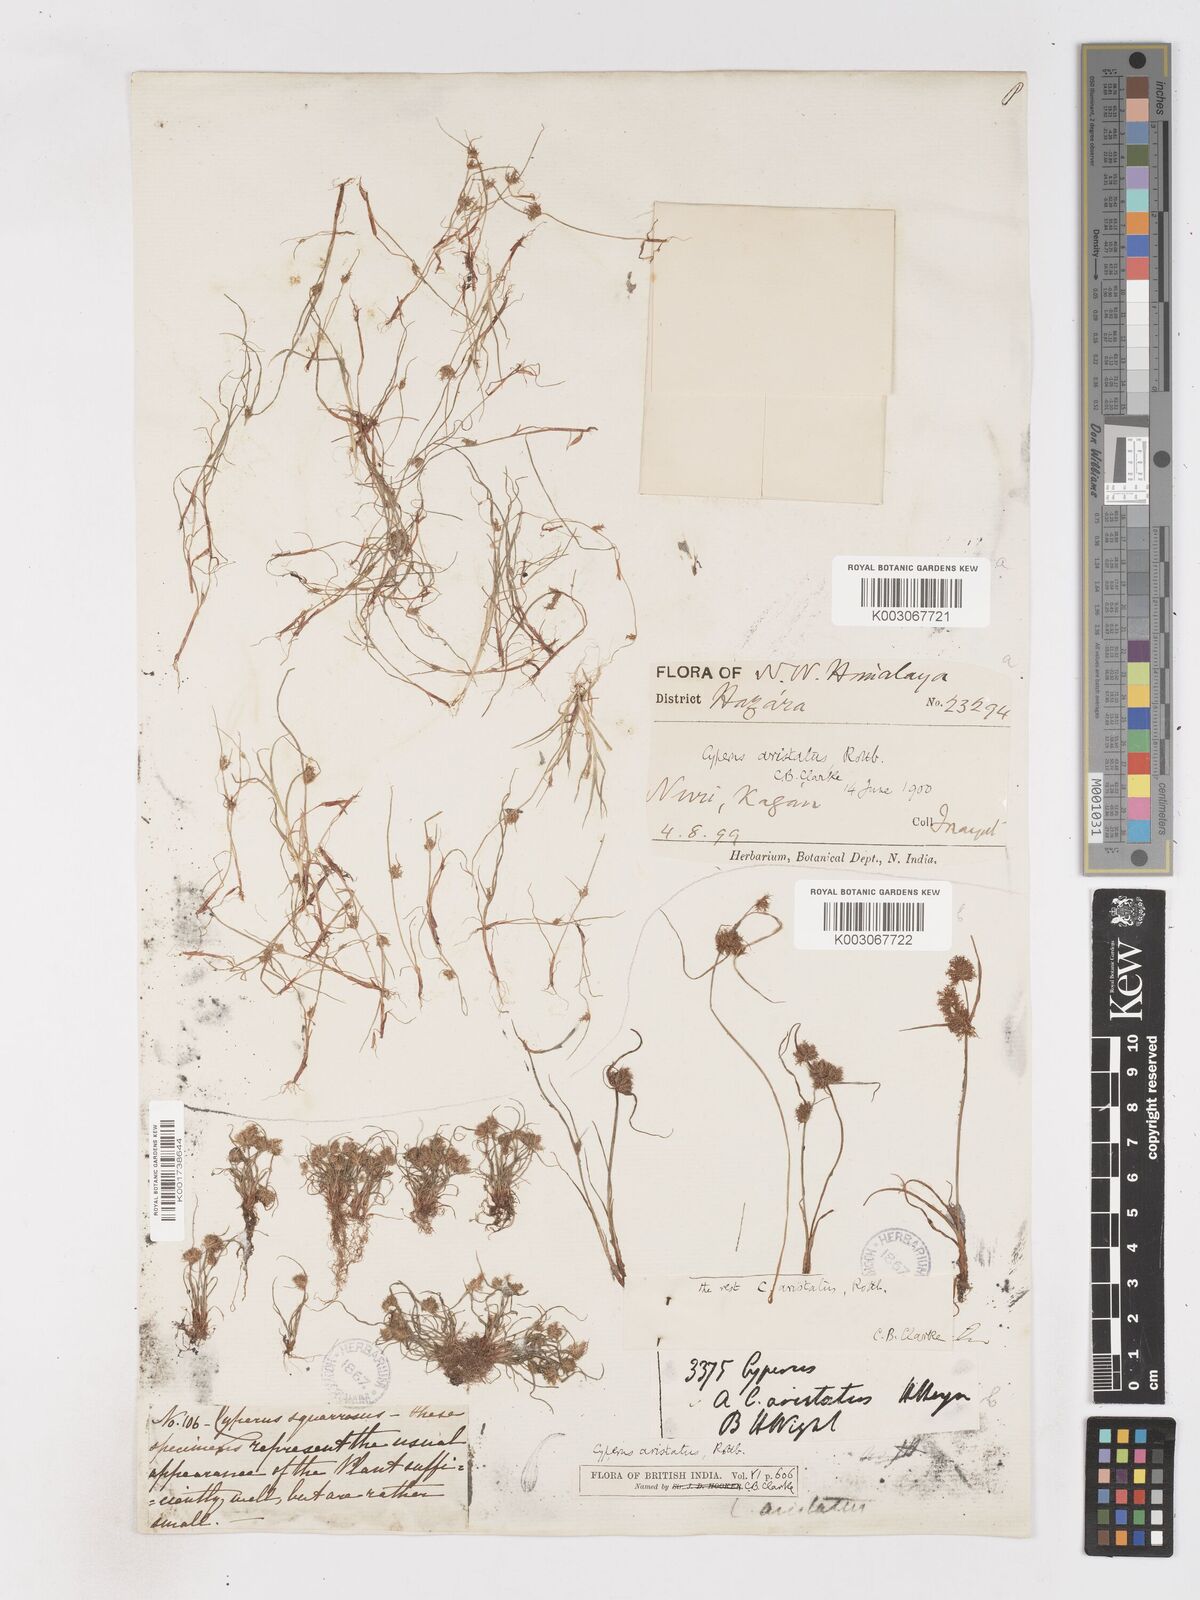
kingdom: Plantae
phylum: Tracheophyta
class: Liliopsida
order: Poales
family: Cyperaceae
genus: Cyperus
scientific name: Cyperus squarrosus
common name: Awned cyperus
